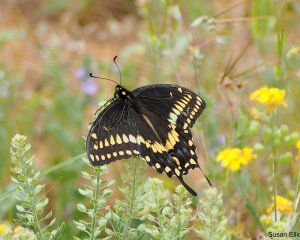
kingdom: Animalia
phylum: Arthropoda
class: Insecta
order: Lepidoptera
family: Papilionidae
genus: Papilio
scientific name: Papilio polyxenes
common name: Black Swallowtail
